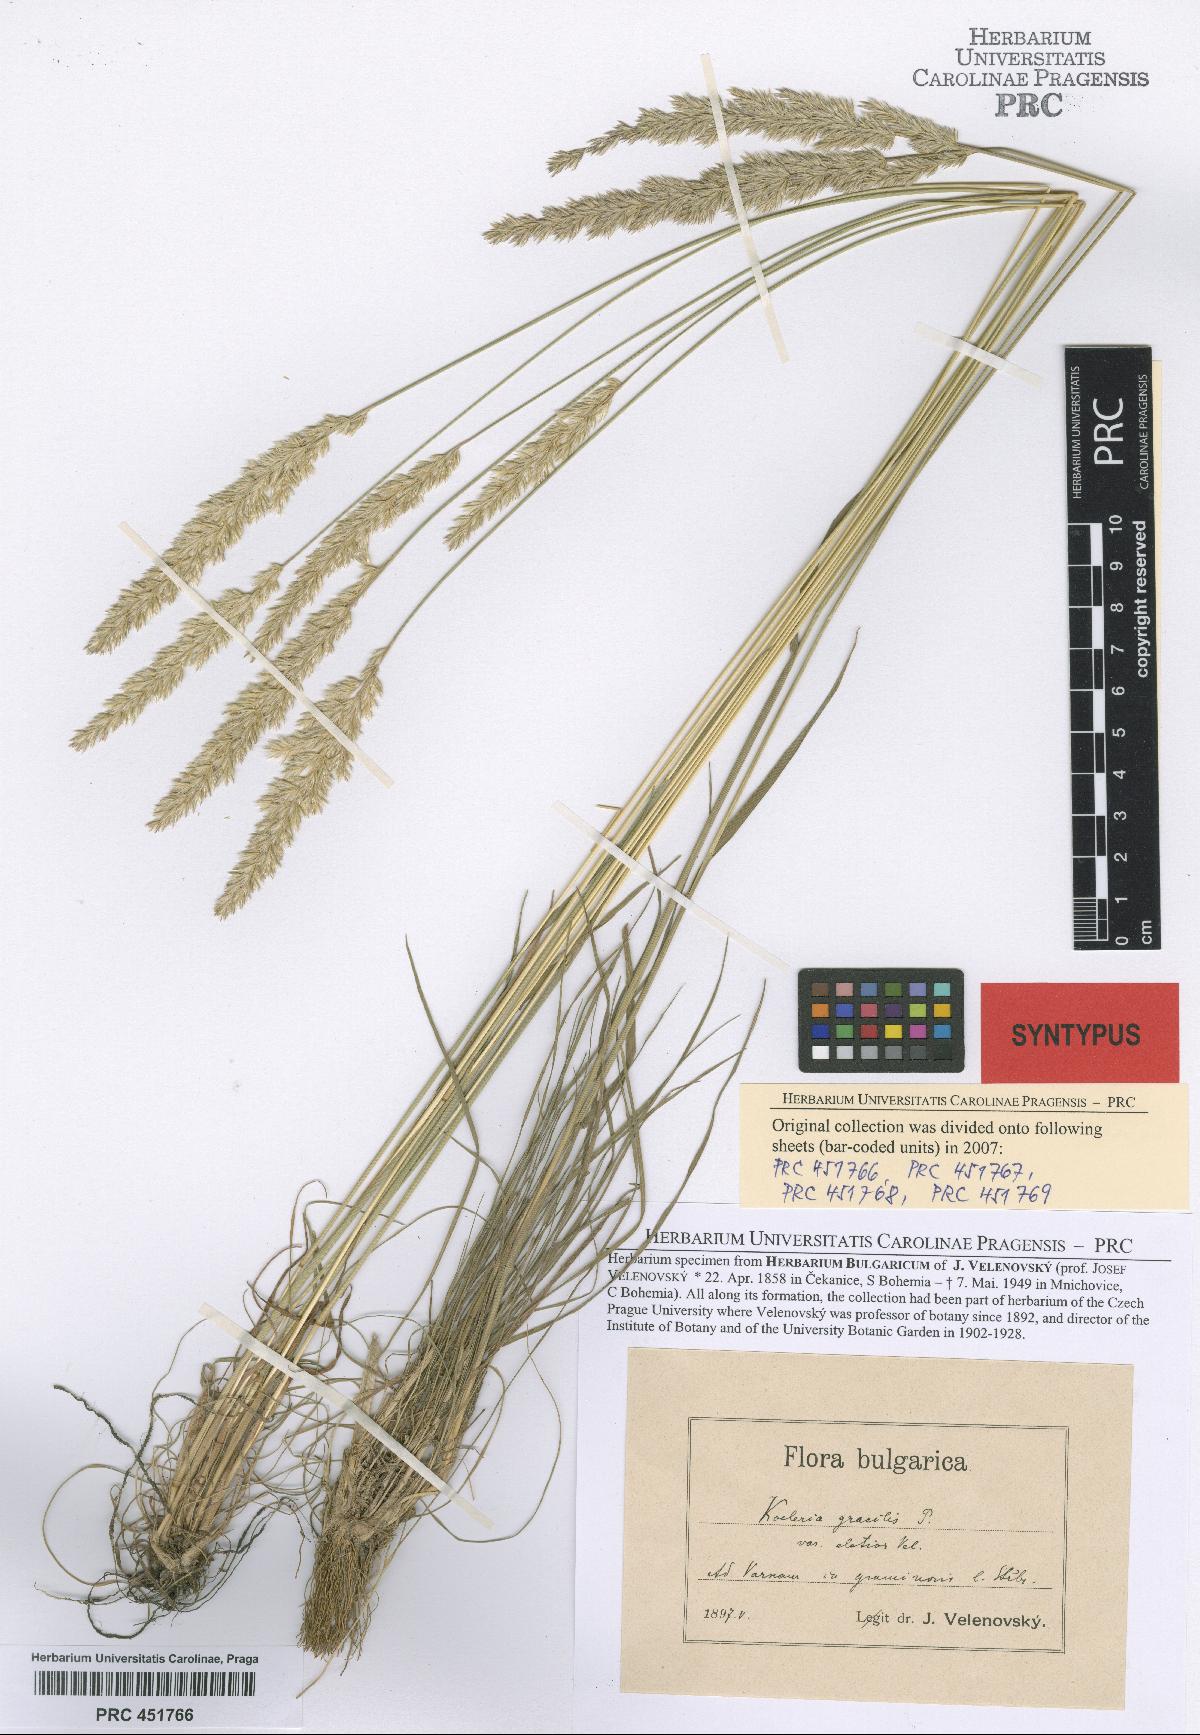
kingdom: Plantae
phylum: Tracheophyta
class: Liliopsida
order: Poales
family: Poaceae
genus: Koeleria
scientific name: Koeleria macrantha
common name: Crested hair-grass
